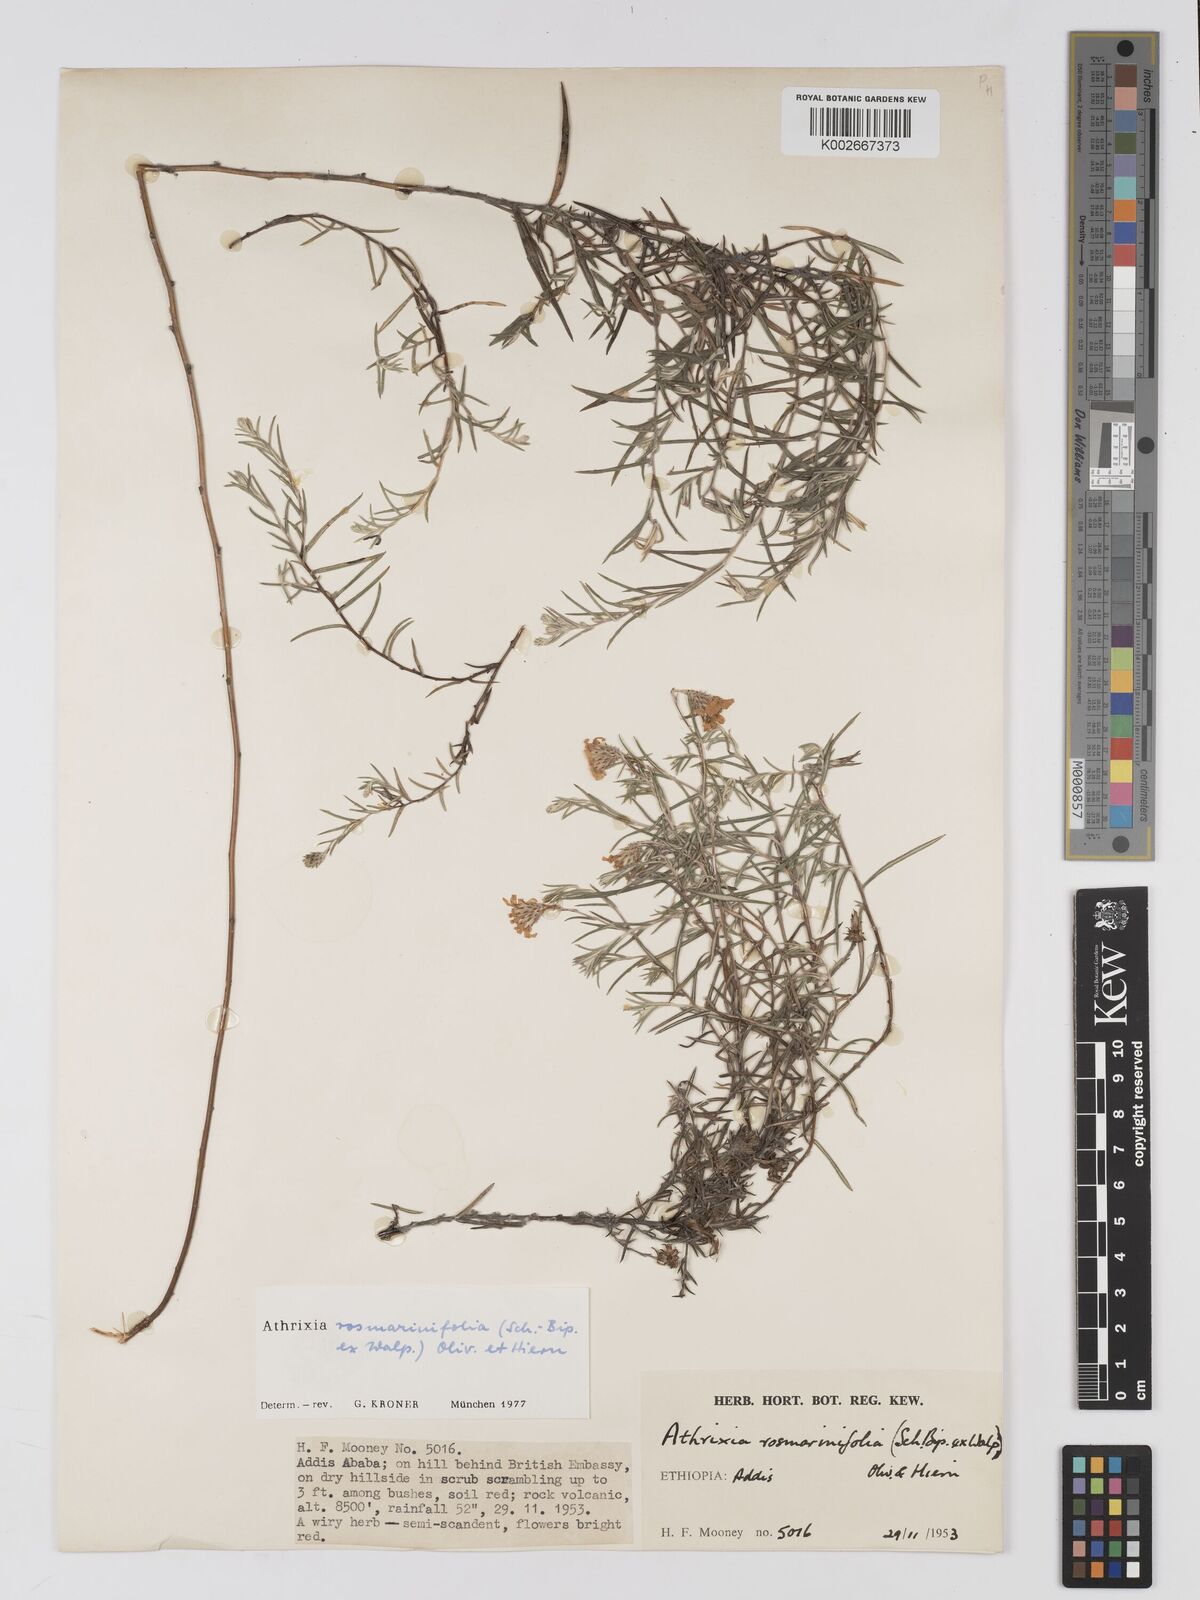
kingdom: Plantae
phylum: Tracheophyta
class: Magnoliopsida
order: Asterales
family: Asteraceae
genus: Athrixia
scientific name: Athrixia rosmarinifolia
